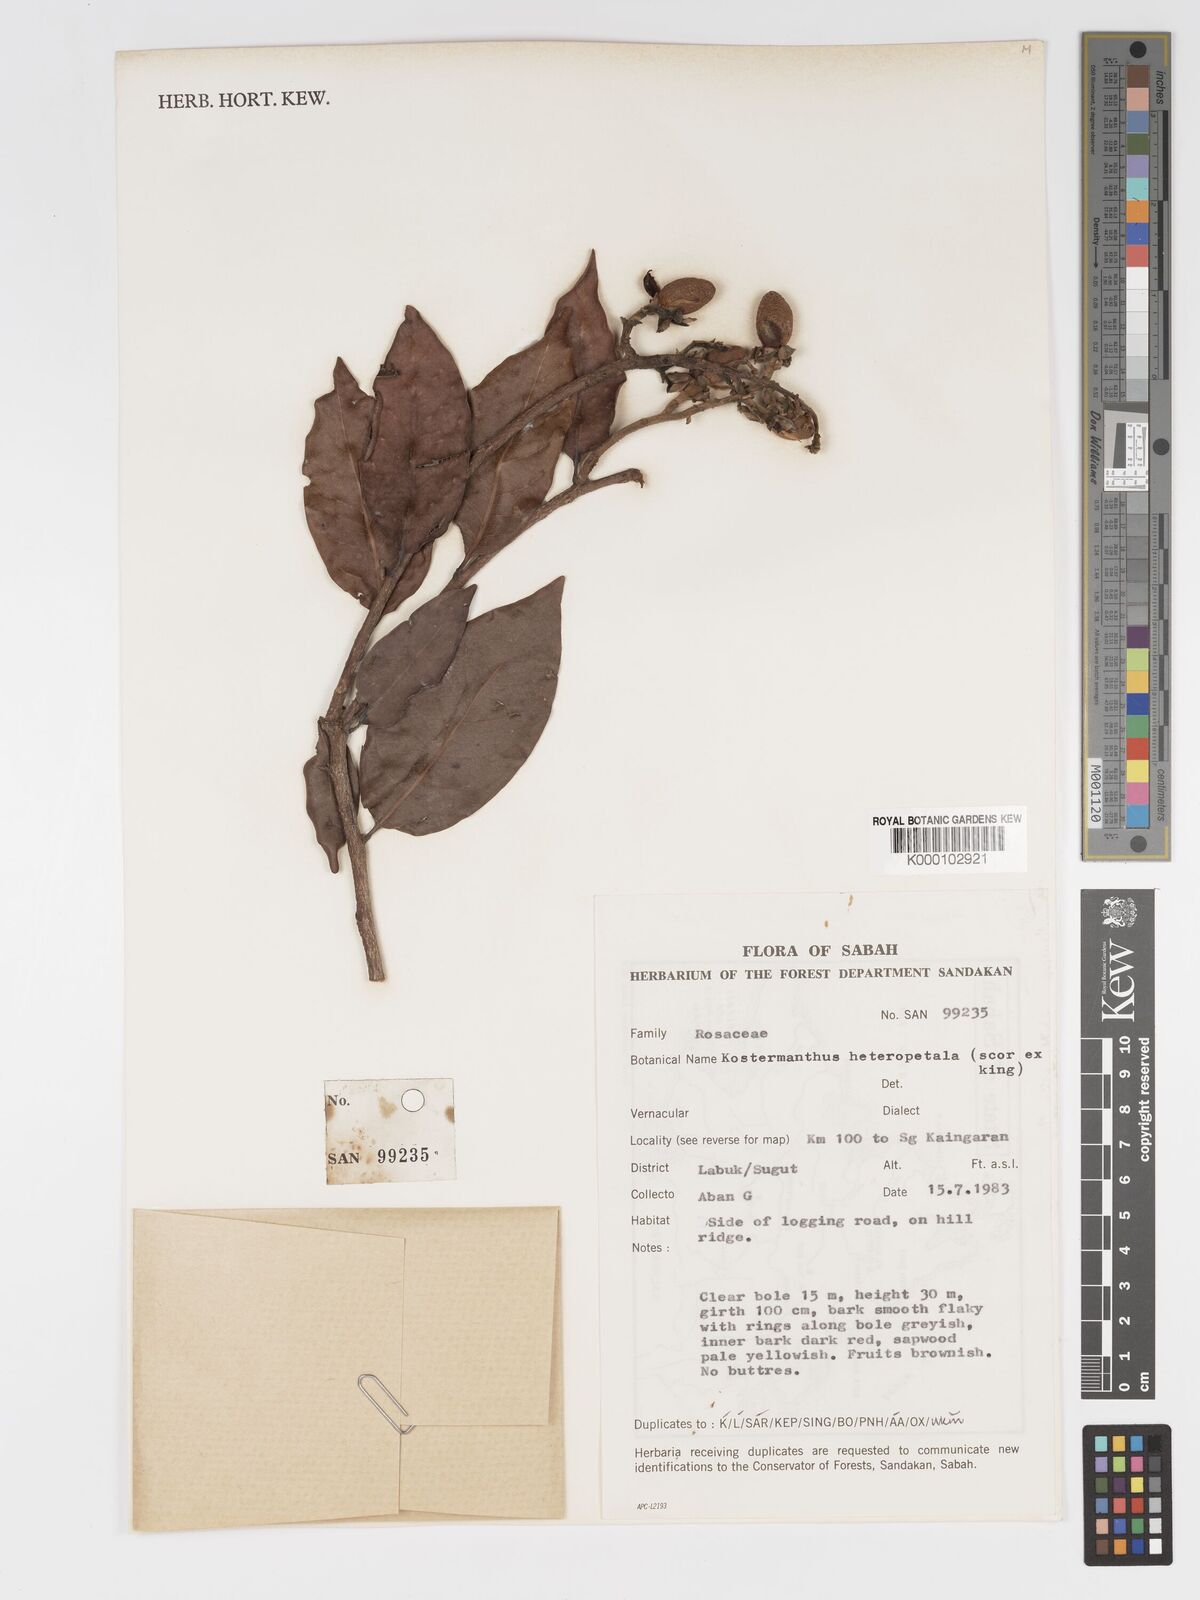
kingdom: Plantae
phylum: Tracheophyta
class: Magnoliopsida
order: Malpighiales
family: Chrysobalanaceae
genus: Kostermanthus
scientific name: Kostermanthus robustus
